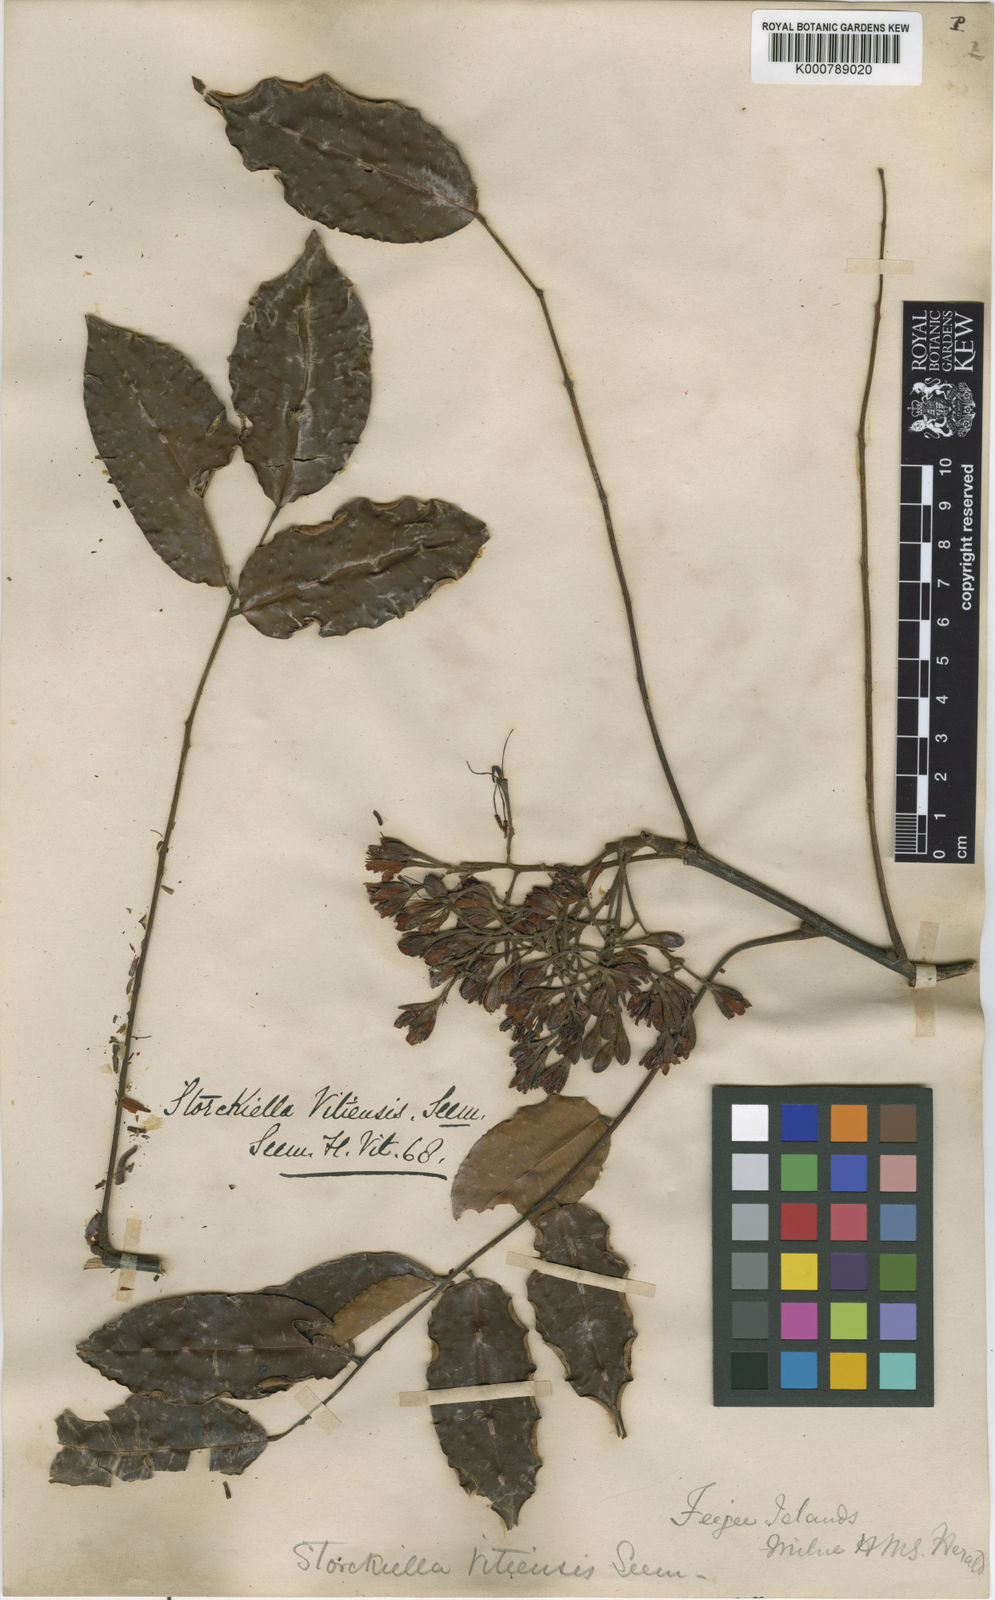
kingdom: Plantae
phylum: Tracheophyta
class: Magnoliopsida
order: Fabales
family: Fabaceae
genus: Storckiella
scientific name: Storckiella vitiensis
